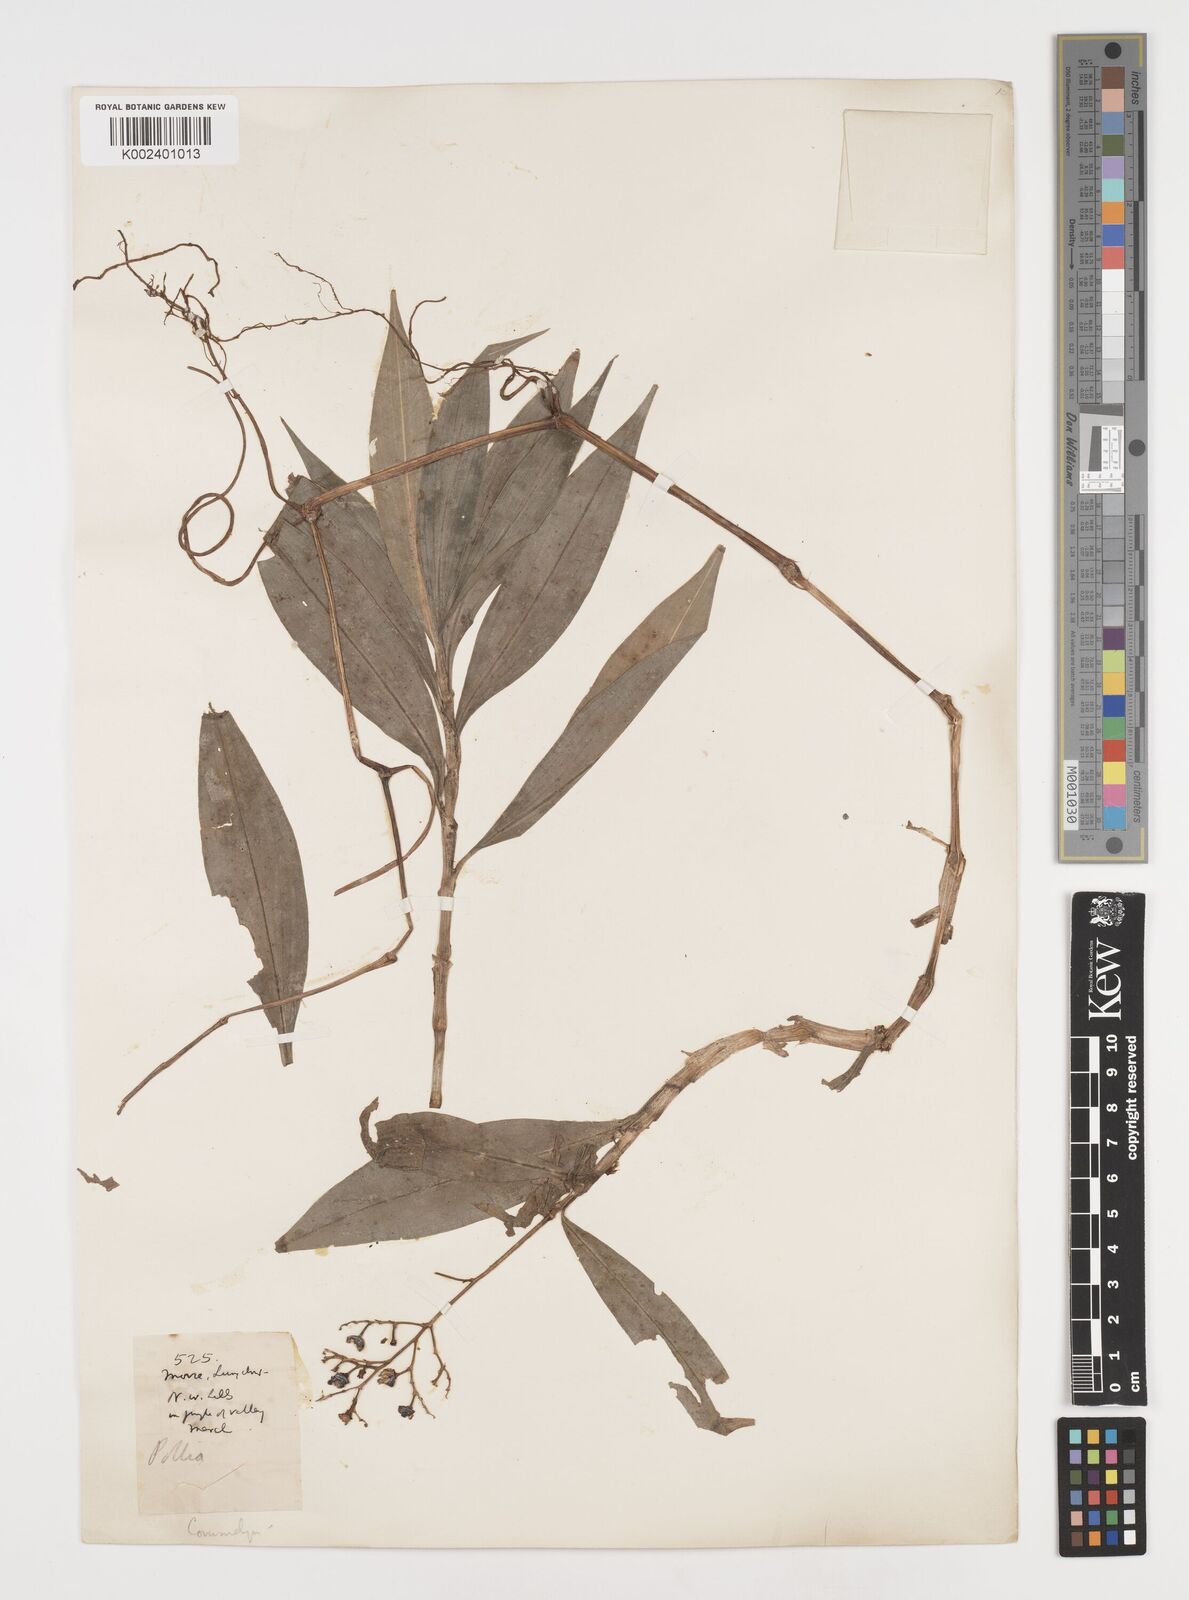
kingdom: Plantae
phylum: Tracheophyta
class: Liliopsida
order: Commelinales
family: Commelinaceae
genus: Pollia
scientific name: Pollia zollingeri
